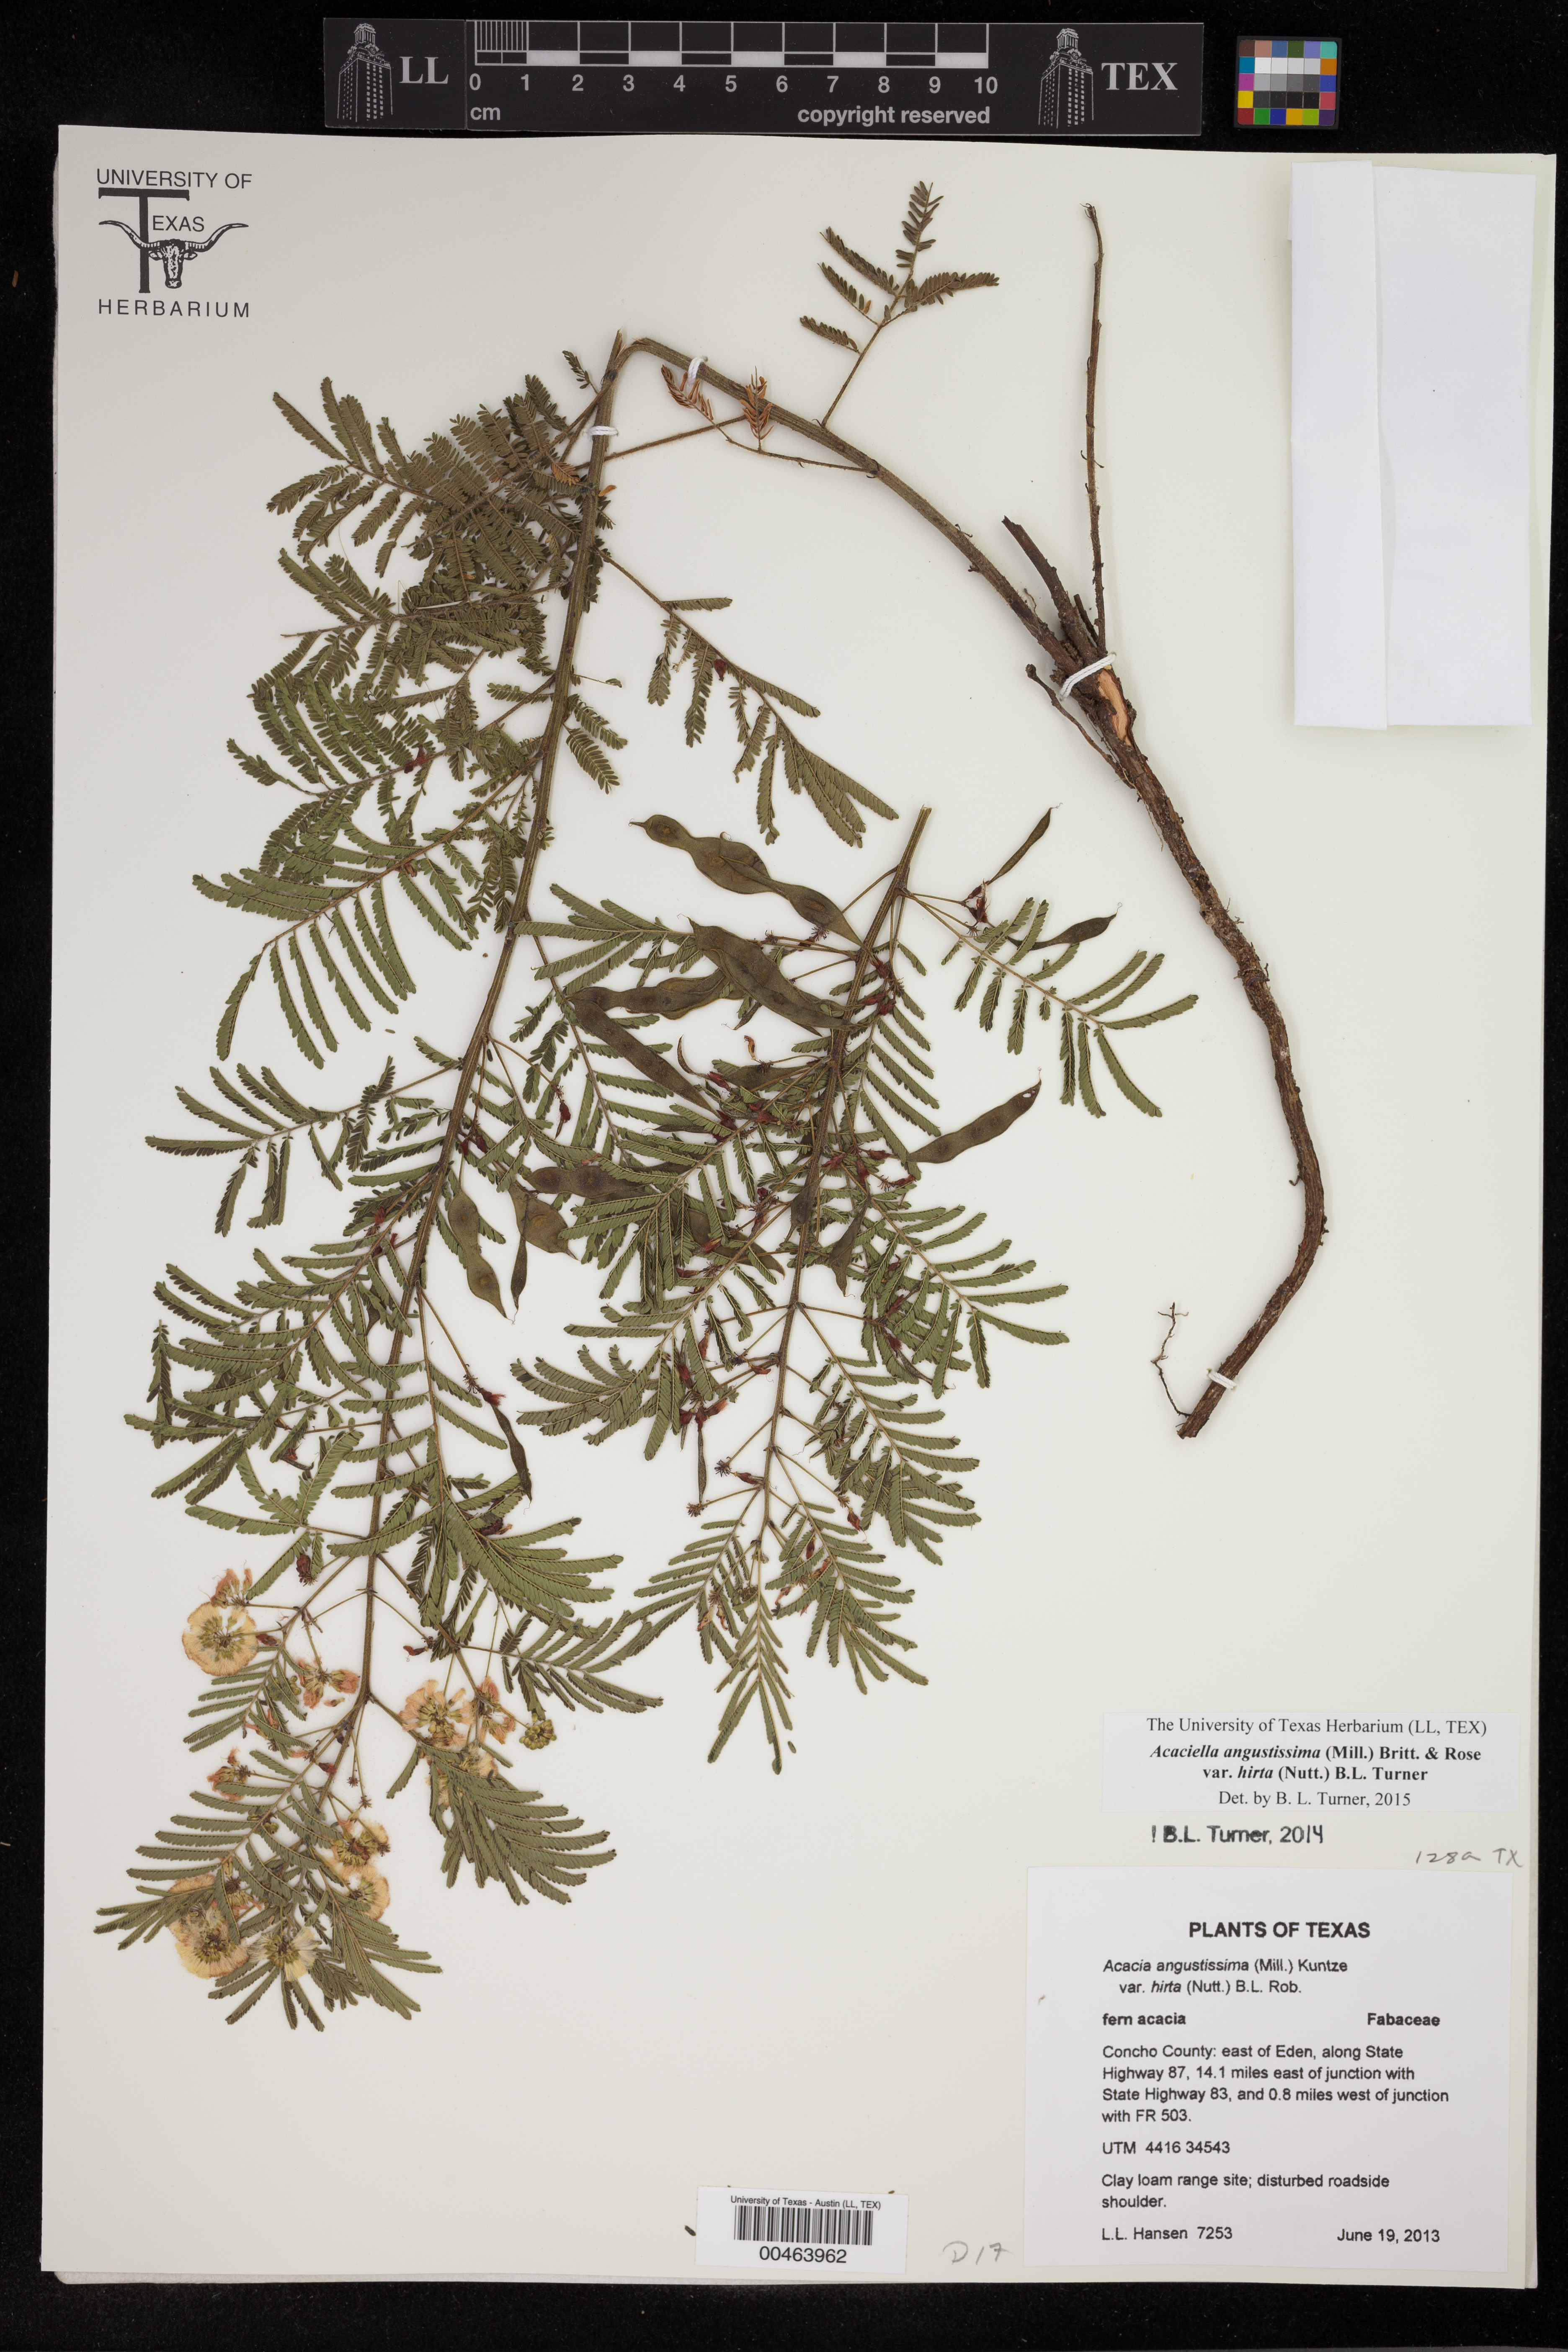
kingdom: Plantae
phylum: Tracheophyta
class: Magnoliopsida
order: Fabales
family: Fabaceae
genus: Acaciella
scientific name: Acaciella angustissima
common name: Prairie acacia
